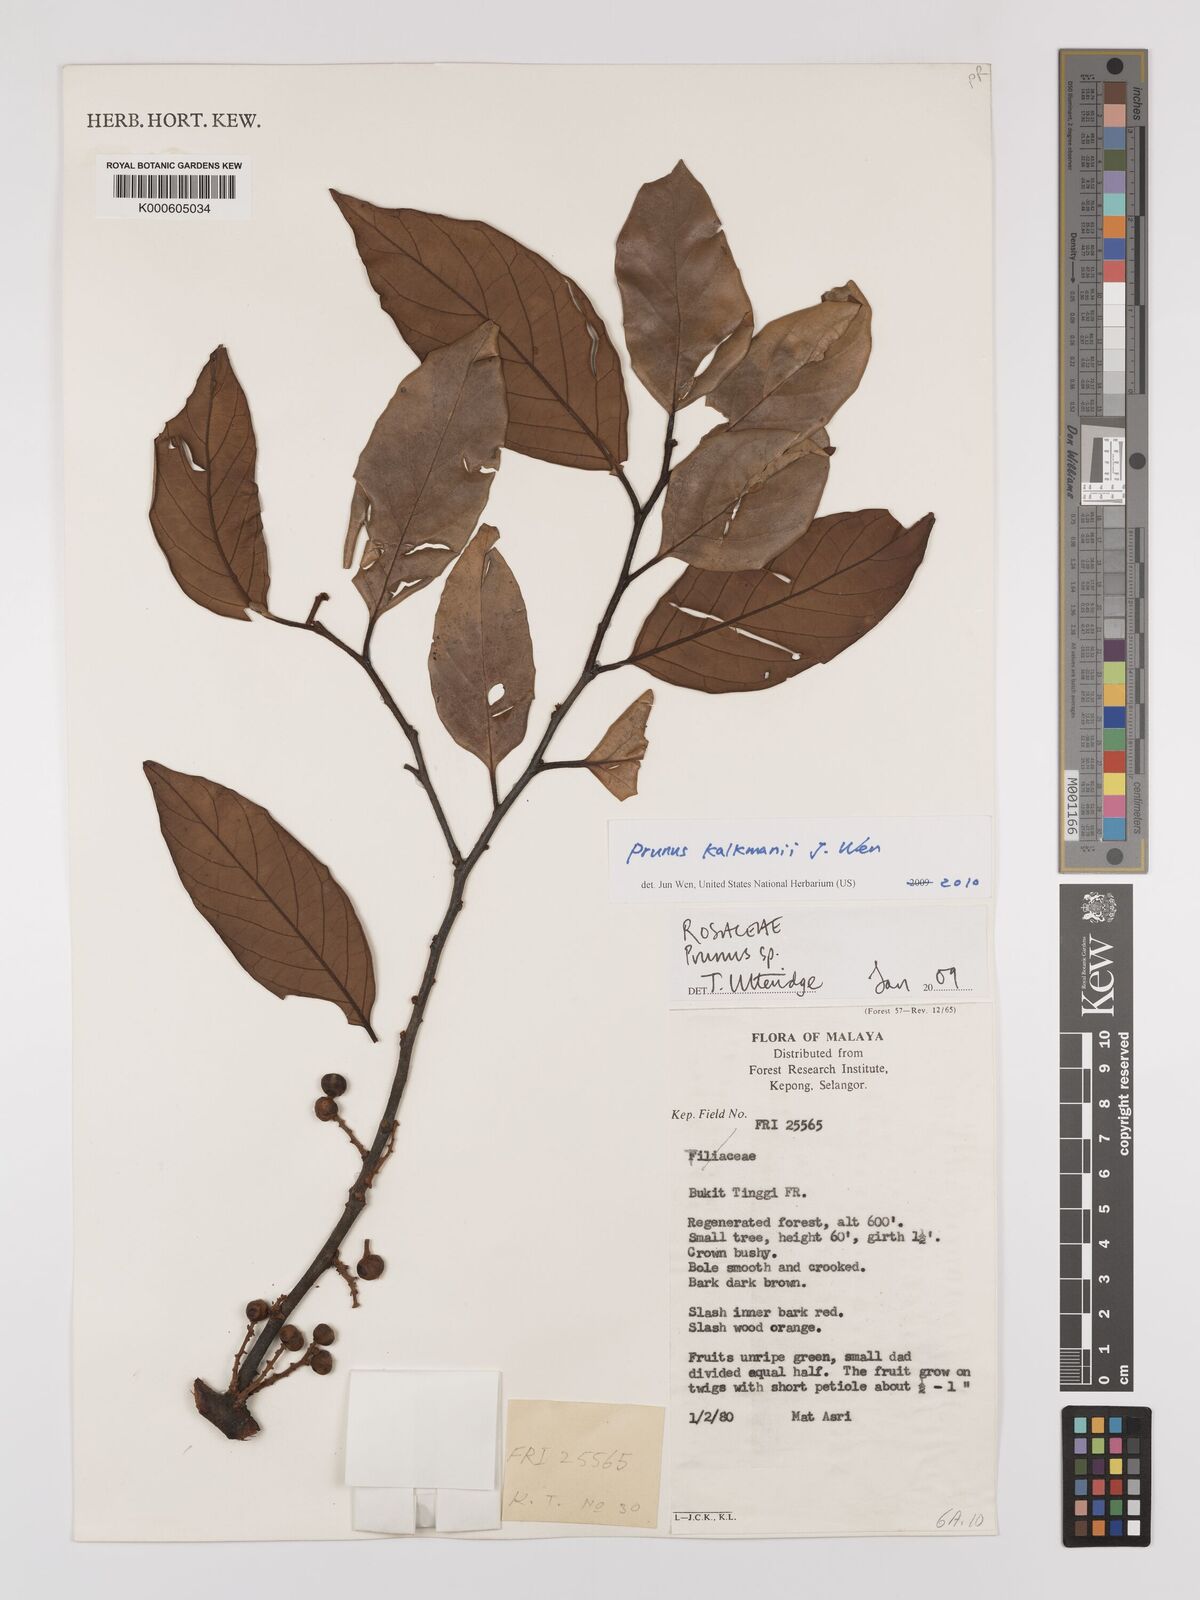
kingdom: Plantae
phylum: Tracheophyta
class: Magnoliopsida
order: Rosales
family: Rosaceae
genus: Prunus
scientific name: Prunus
